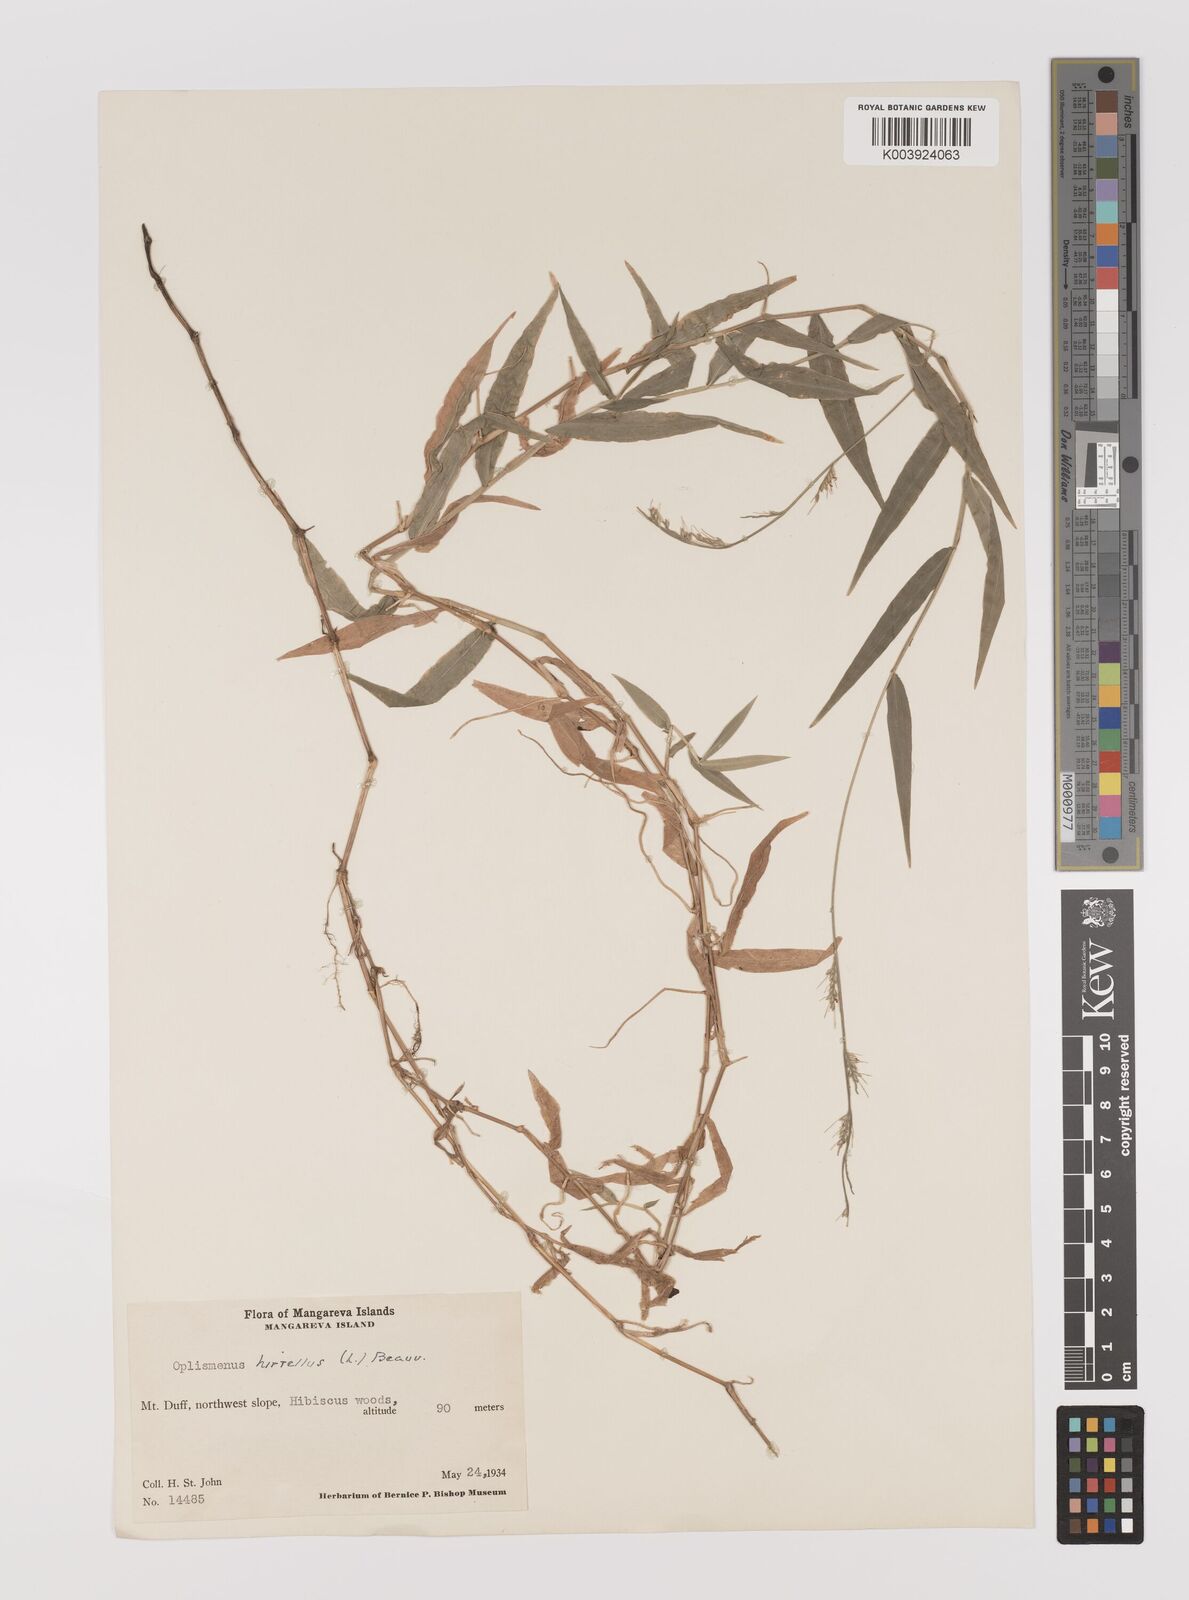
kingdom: Plantae
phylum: Tracheophyta
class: Liliopsida
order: Poales
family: Poaceae
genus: Oplismenus
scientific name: Oplismenus hirtellus
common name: Basketgrass
